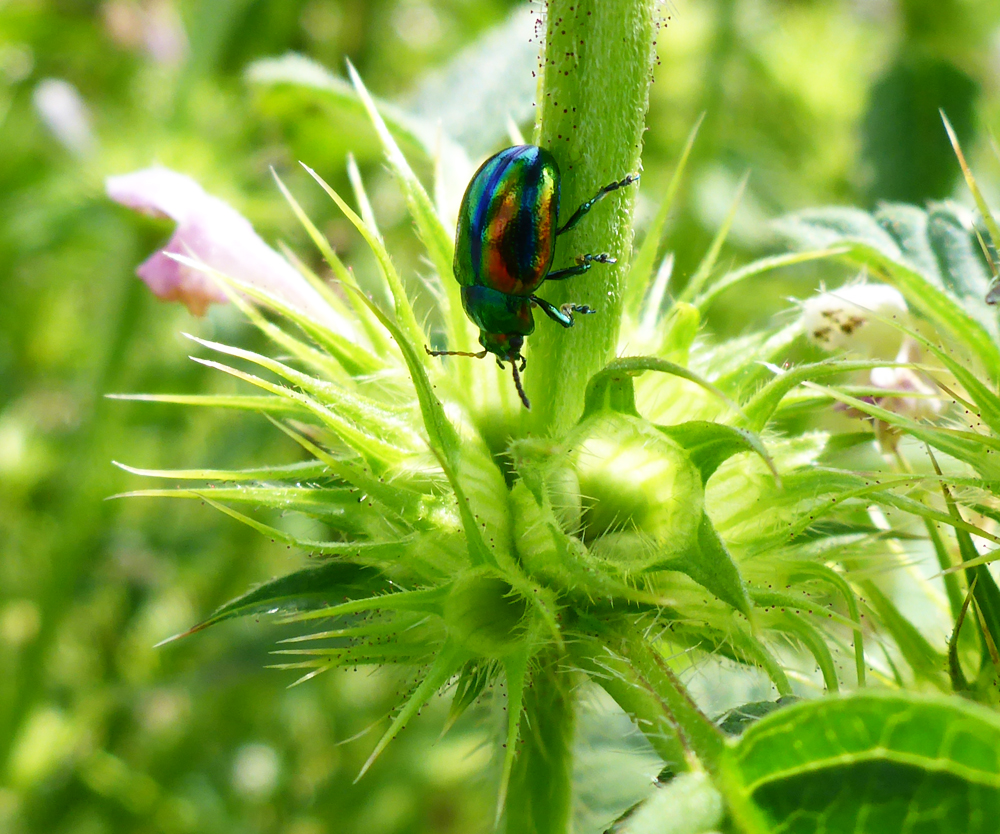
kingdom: Animalia
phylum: Arthropoda
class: Insecta
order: Coleoptera
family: Chrysomelidae
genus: Chrysolina
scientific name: Chrysolina fastuosa
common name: Dead-nettle leaf beetle
